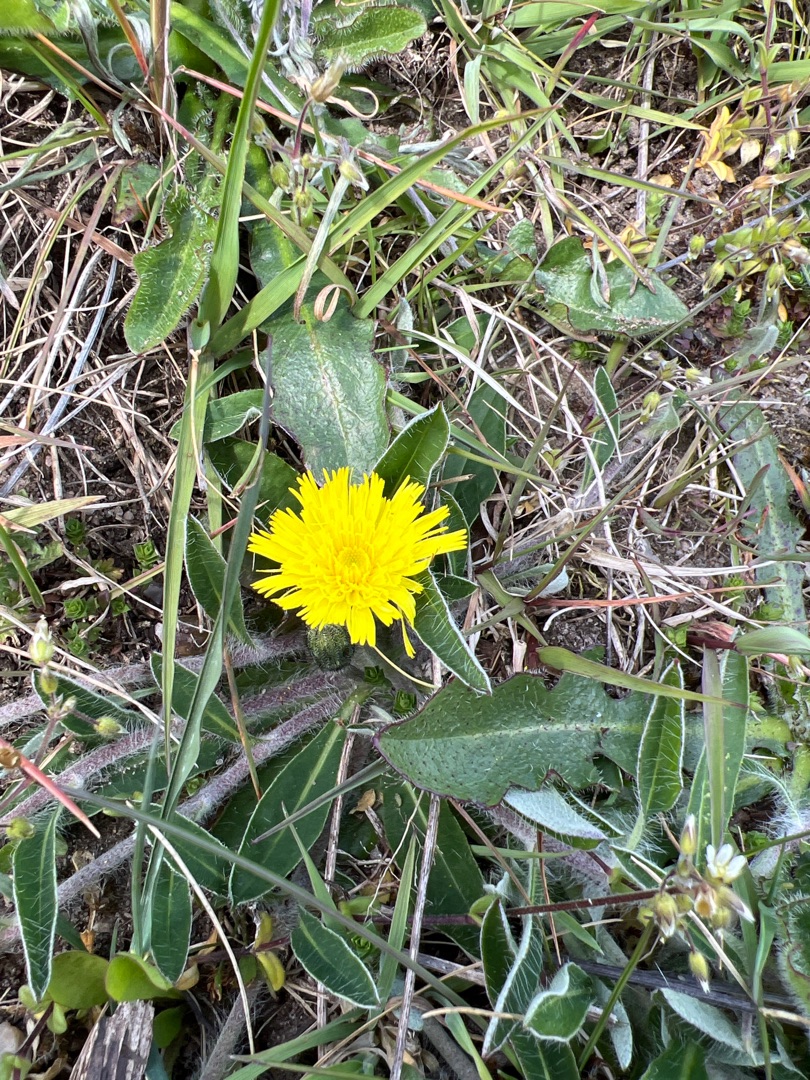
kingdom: Plantae
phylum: Tracheophyta
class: Magnoliopsida
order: Asterales
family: Asteraceae
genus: Pilosella
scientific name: Pilosella officinarum
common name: Håret høgeurt
